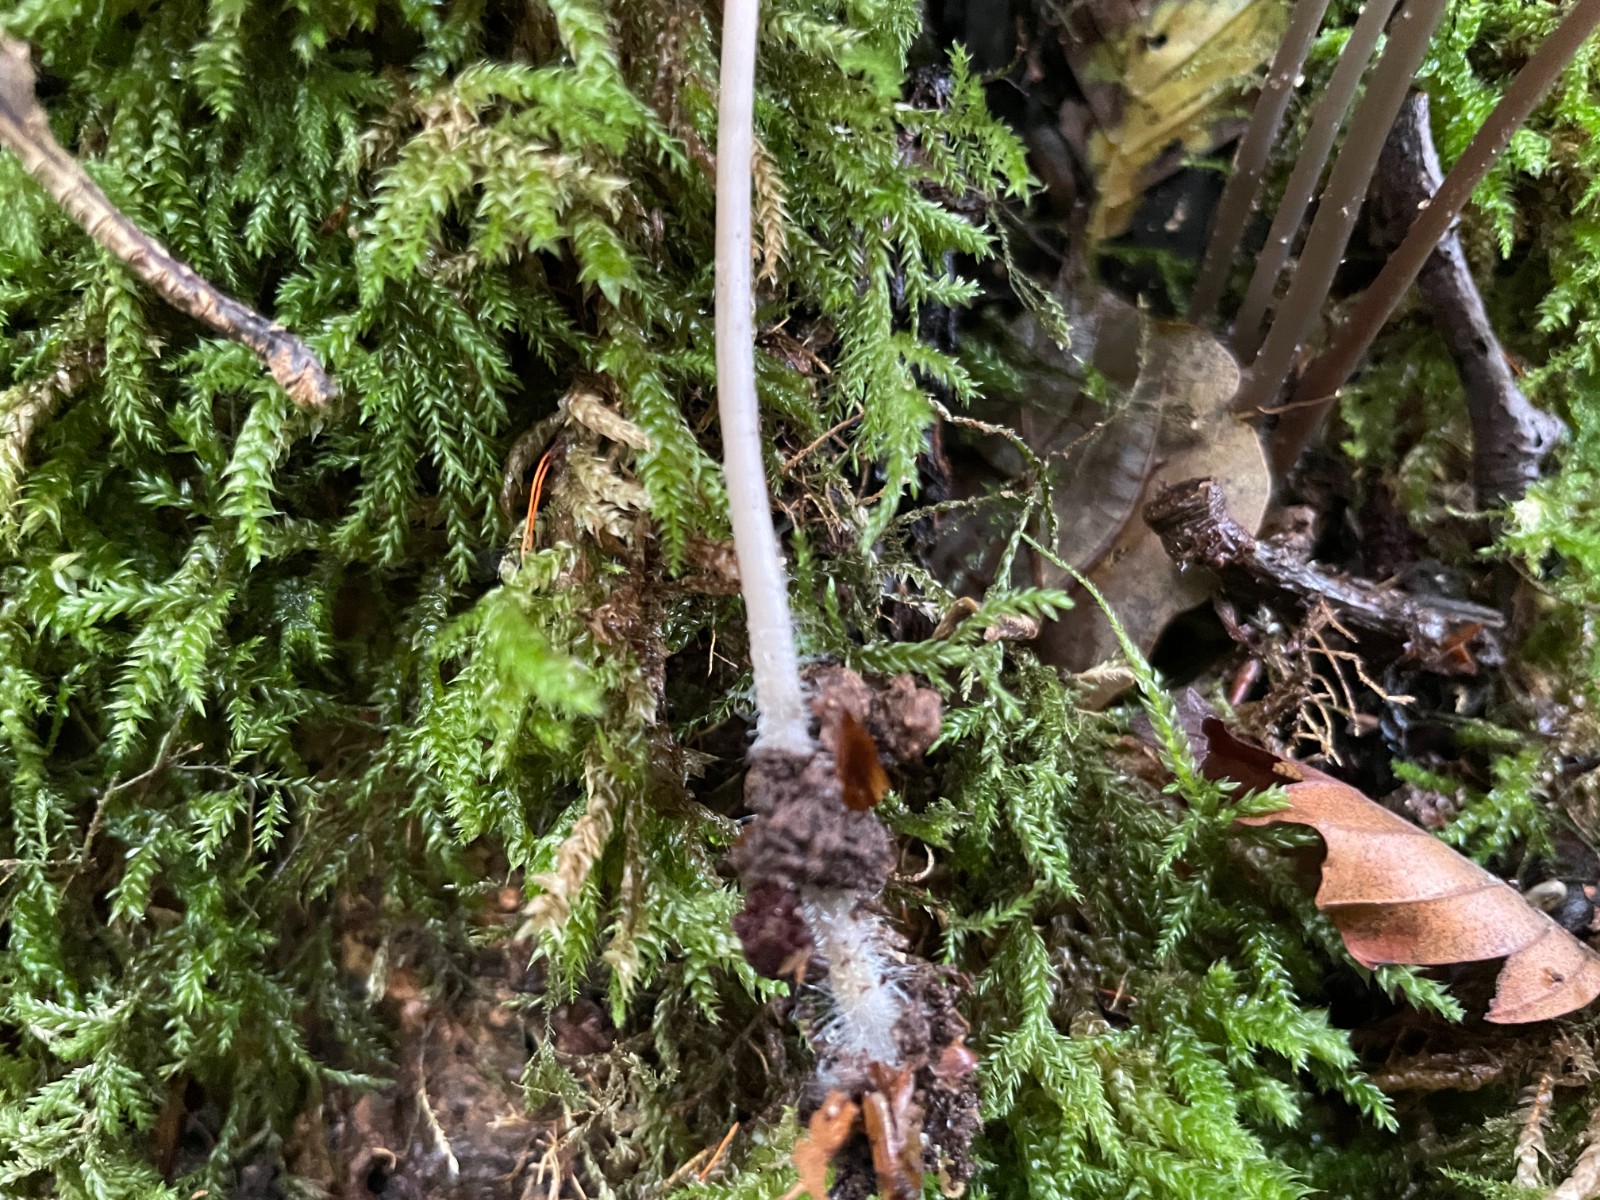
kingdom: Fungi
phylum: Basidiomycota
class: Agaricomycetes
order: Agaricales
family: Mycenaceae
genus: Mycena
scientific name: Mycena vitilis
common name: blankstokket huesvamp
